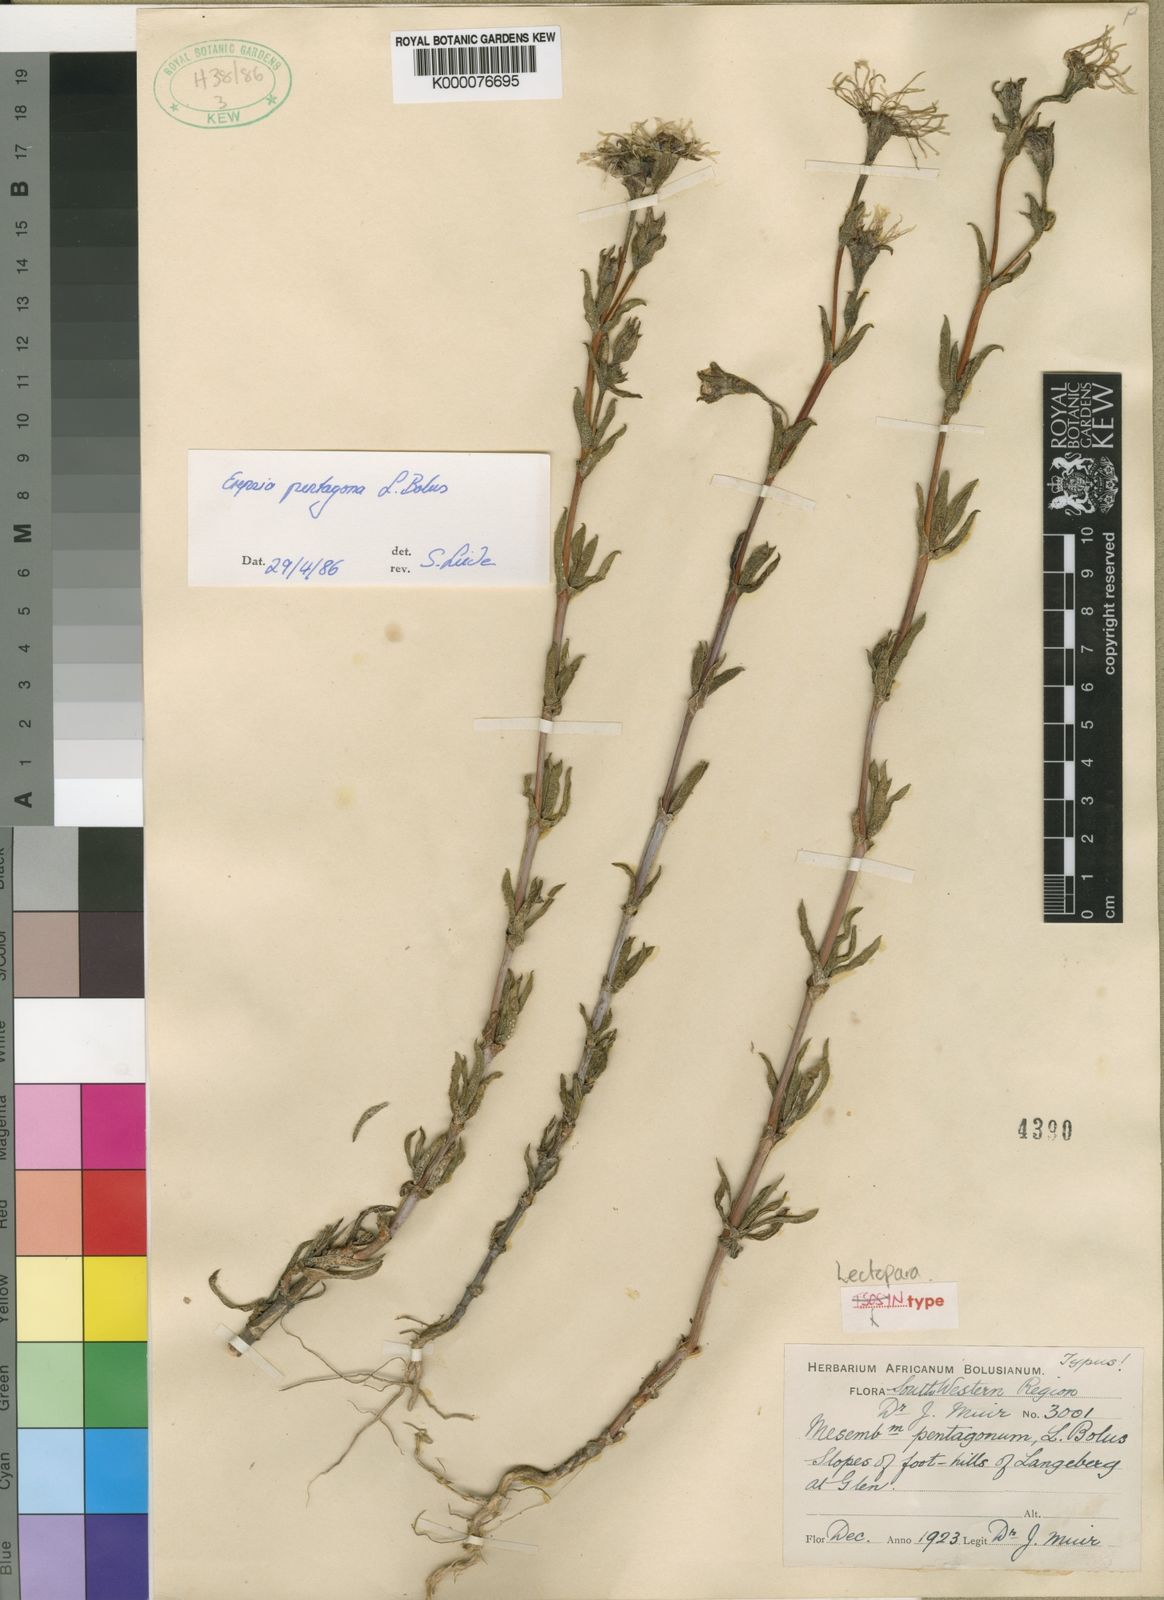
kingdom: Plantae
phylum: Tracheophyta
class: Magnoliopsida
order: Caryophyllales
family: Aizoaceae
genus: Erepsia
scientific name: Erepsia pentagona
